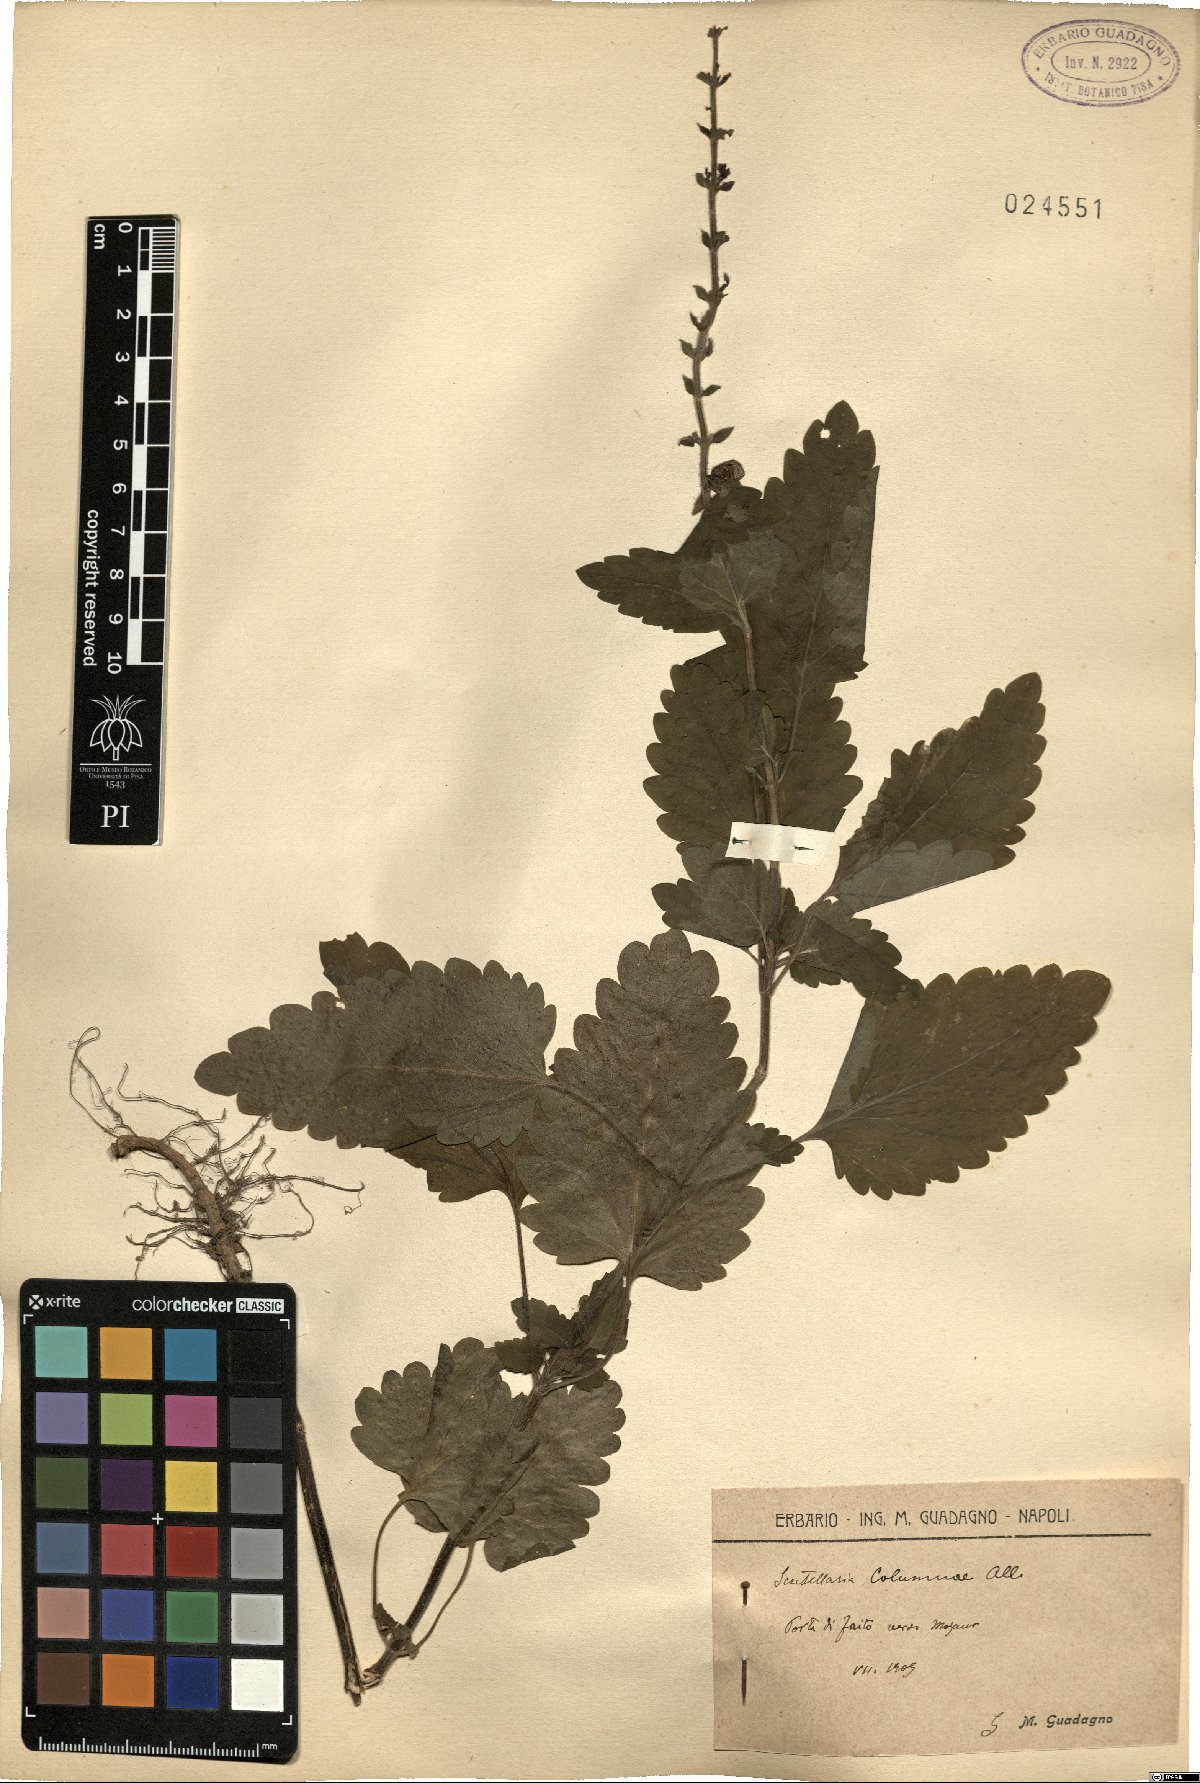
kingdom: Plantae
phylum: Tracheophyta
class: Magnoliopsida
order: Lamiales
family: Lamiaceae
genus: Scutellaria
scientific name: Scutellaria columnae
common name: Large skullcap
